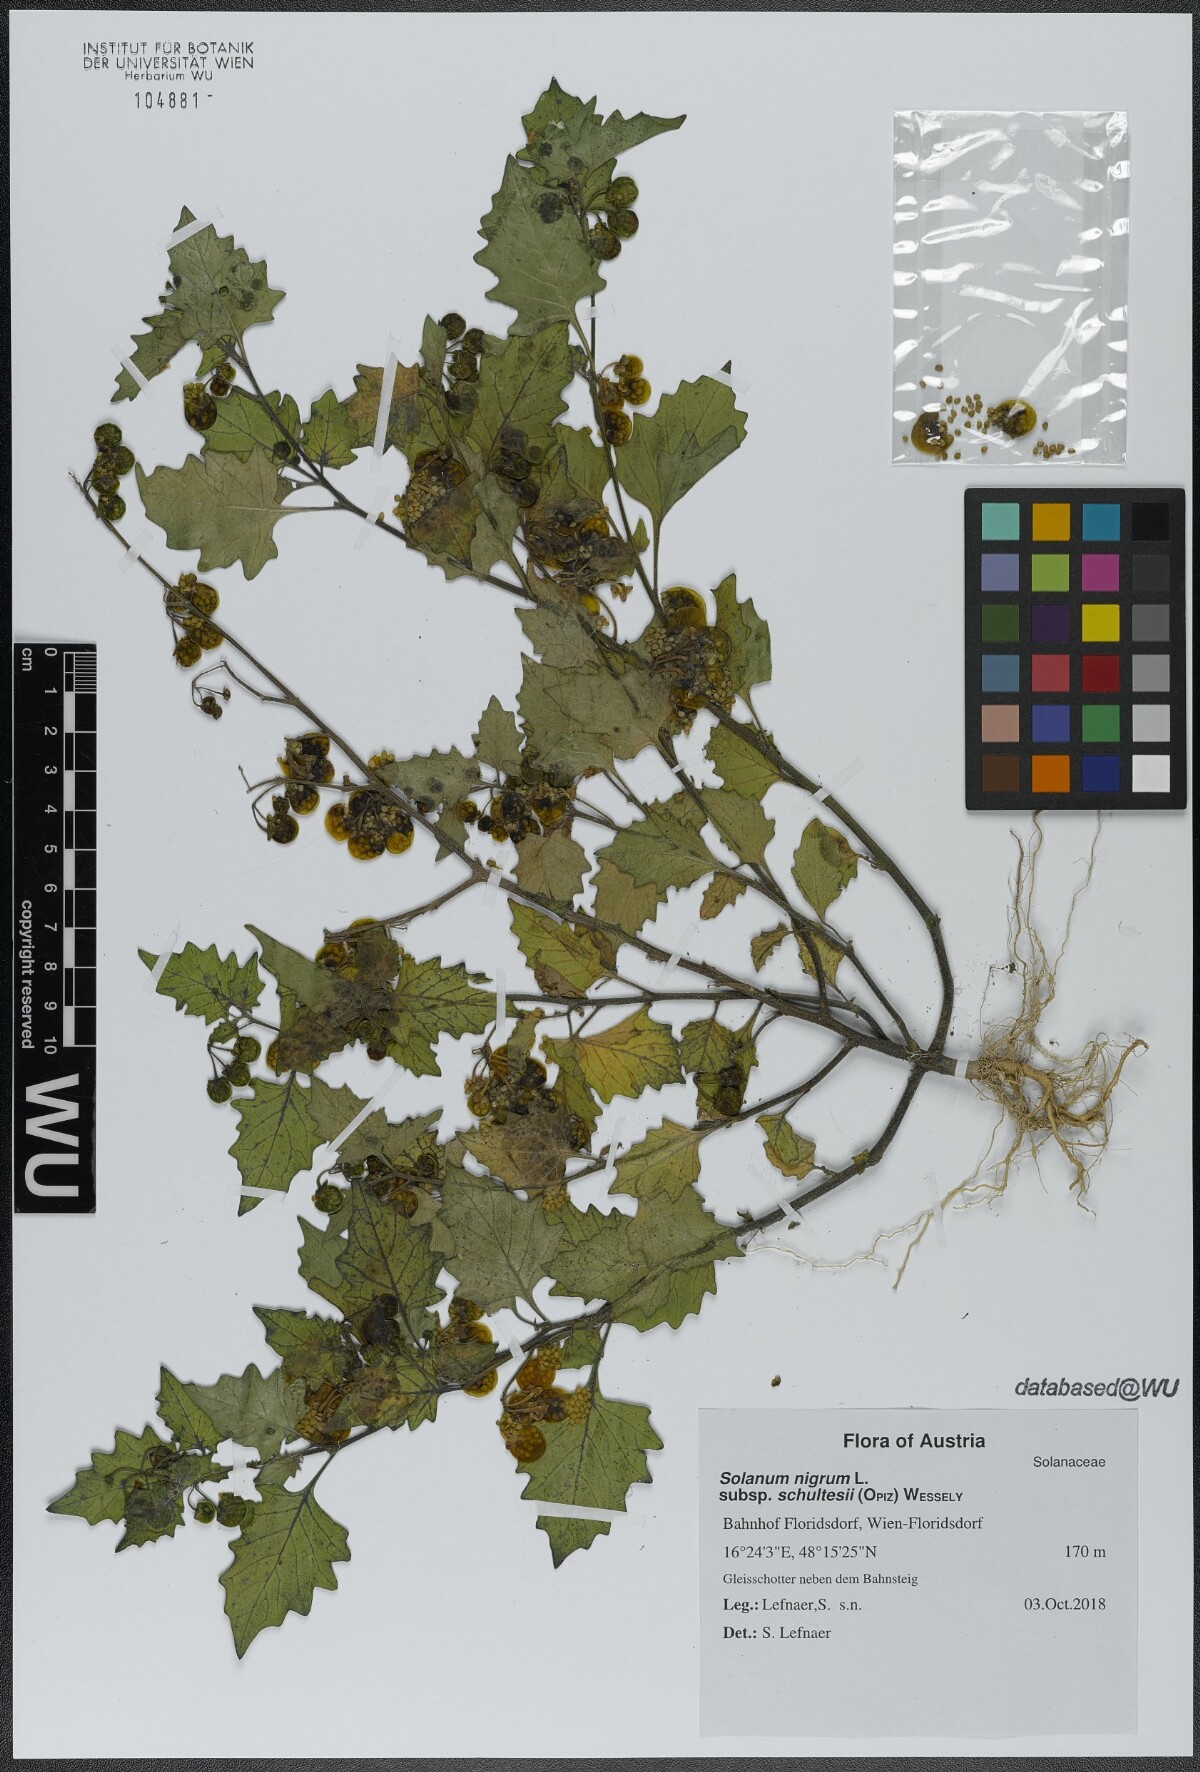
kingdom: Plantae
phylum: Tracheophyta
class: Magnoliopsida
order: Solanales
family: Solanaceae
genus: Solanum
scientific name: Solanum decipiens
